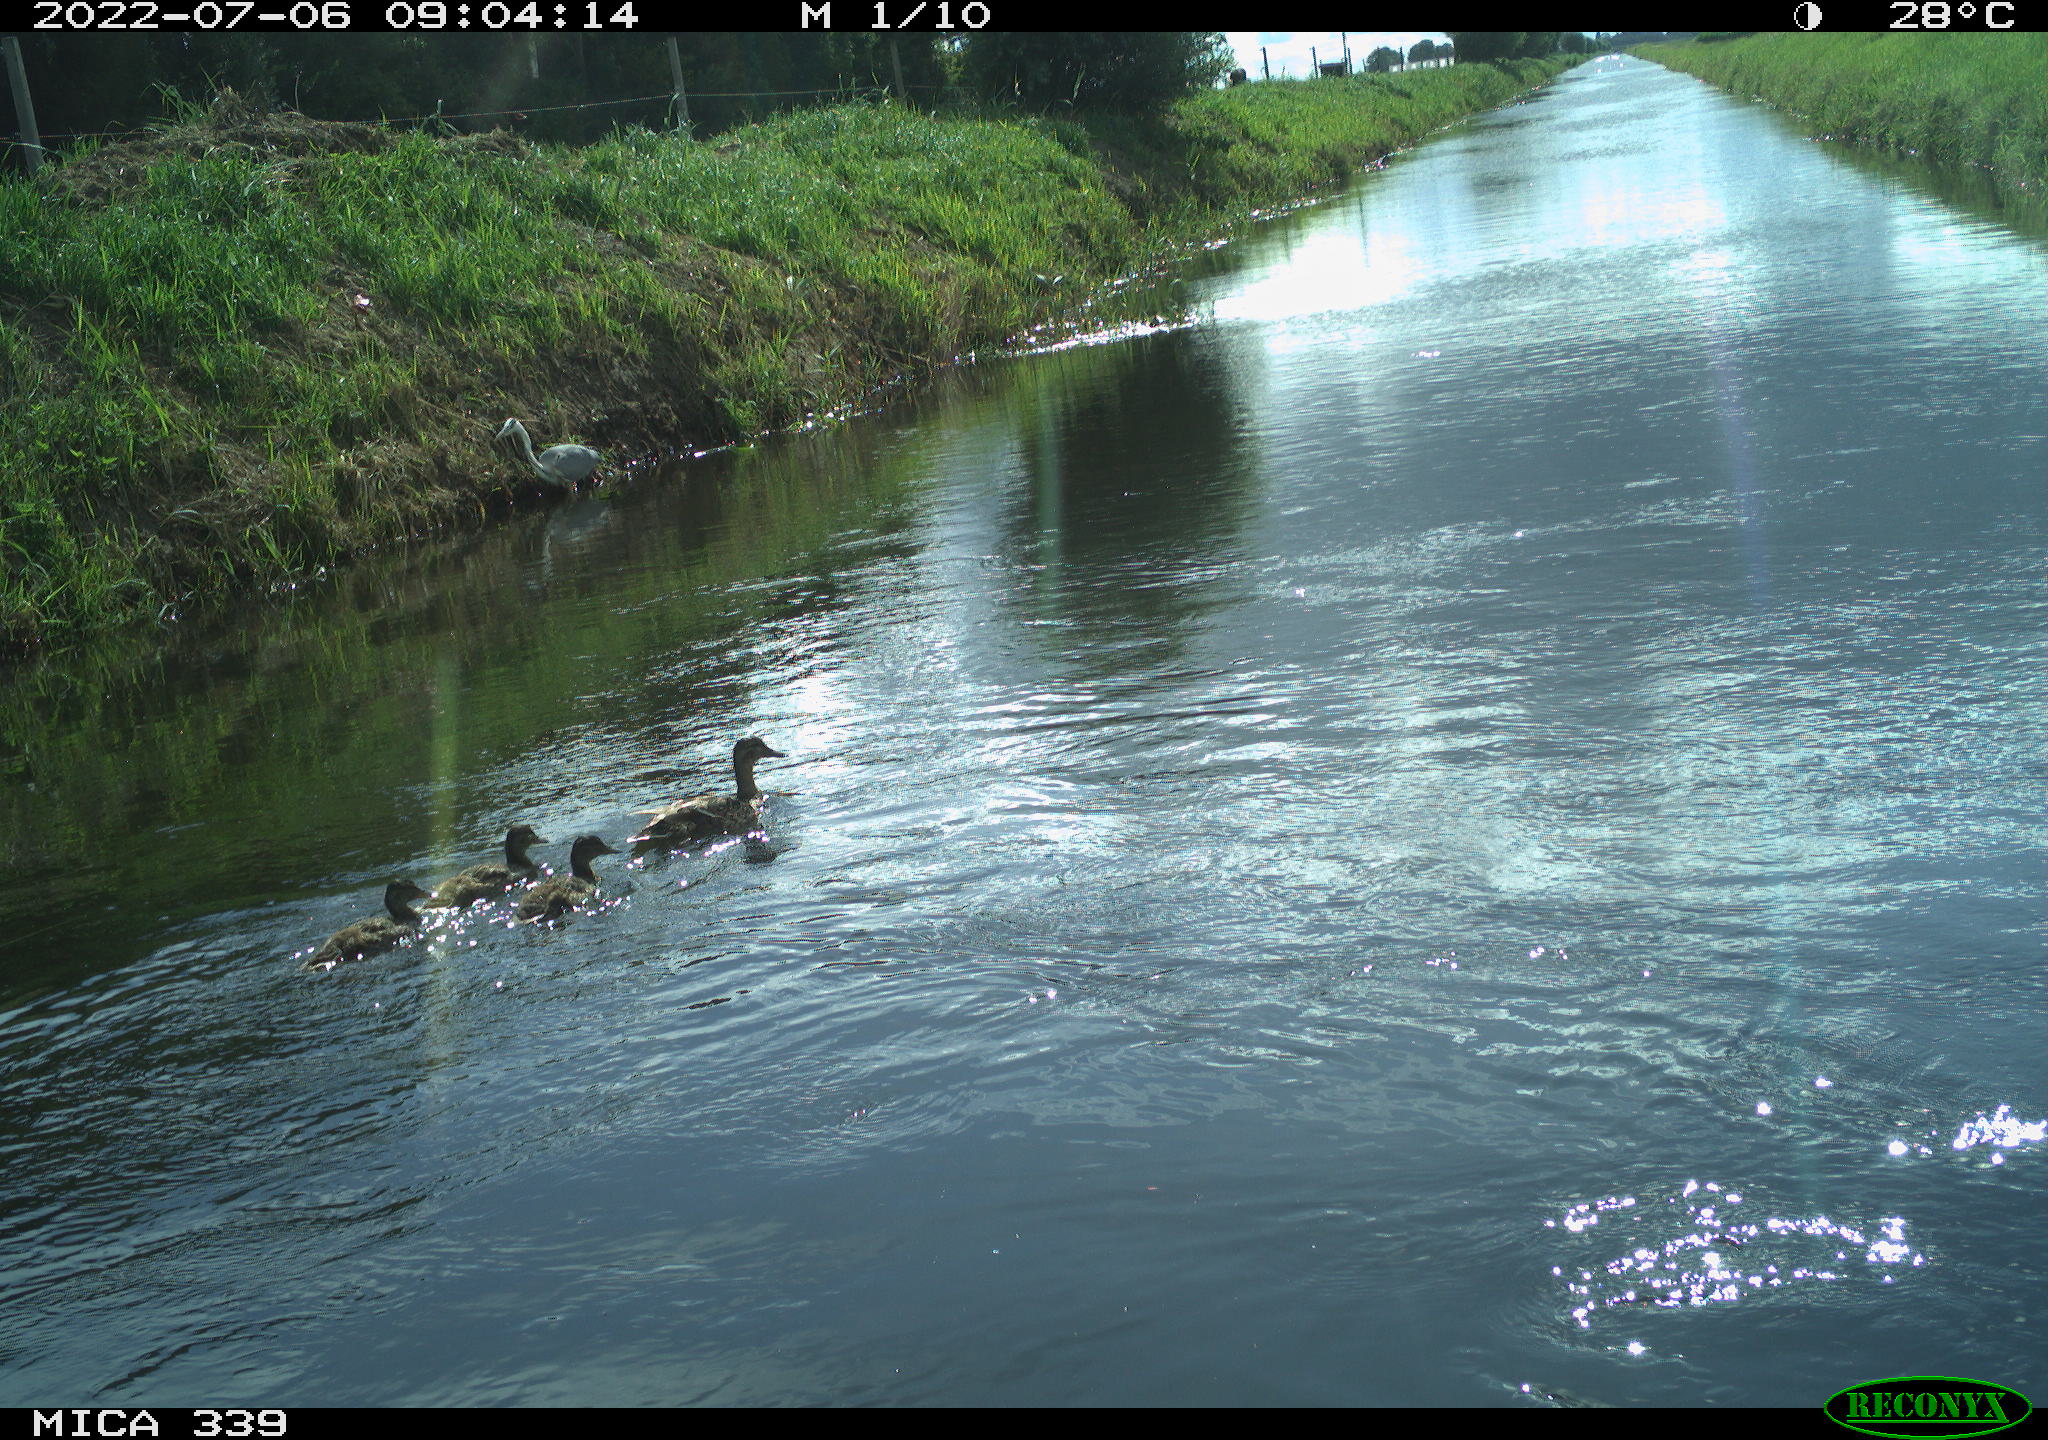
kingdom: Animalia
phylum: Chordata
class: Aves
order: Anseriformes
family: Anatidae
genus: Anas
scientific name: Anas platyrhynchos
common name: Mallard
